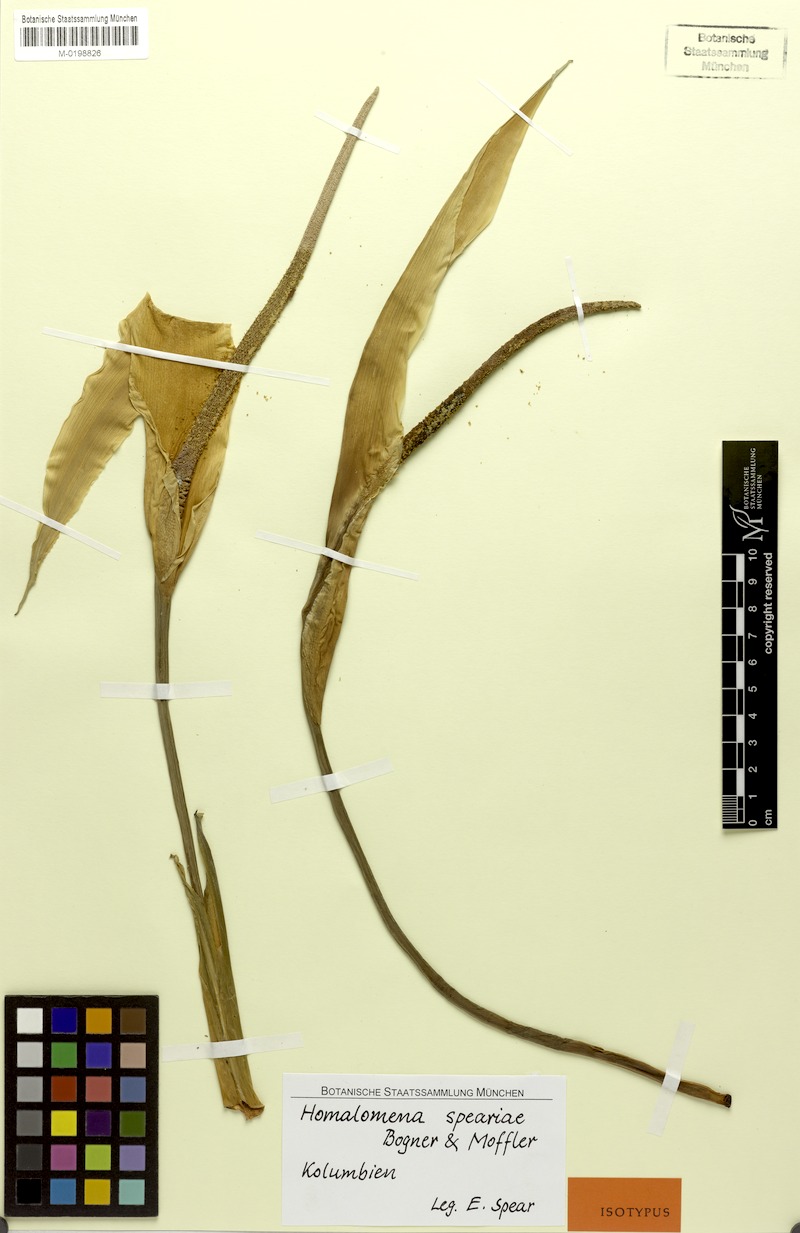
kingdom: Plantae
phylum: Tracheophyta
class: Liliopsida
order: Alismatales
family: Araceae
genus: Adelonema
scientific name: Adelonema speariae
